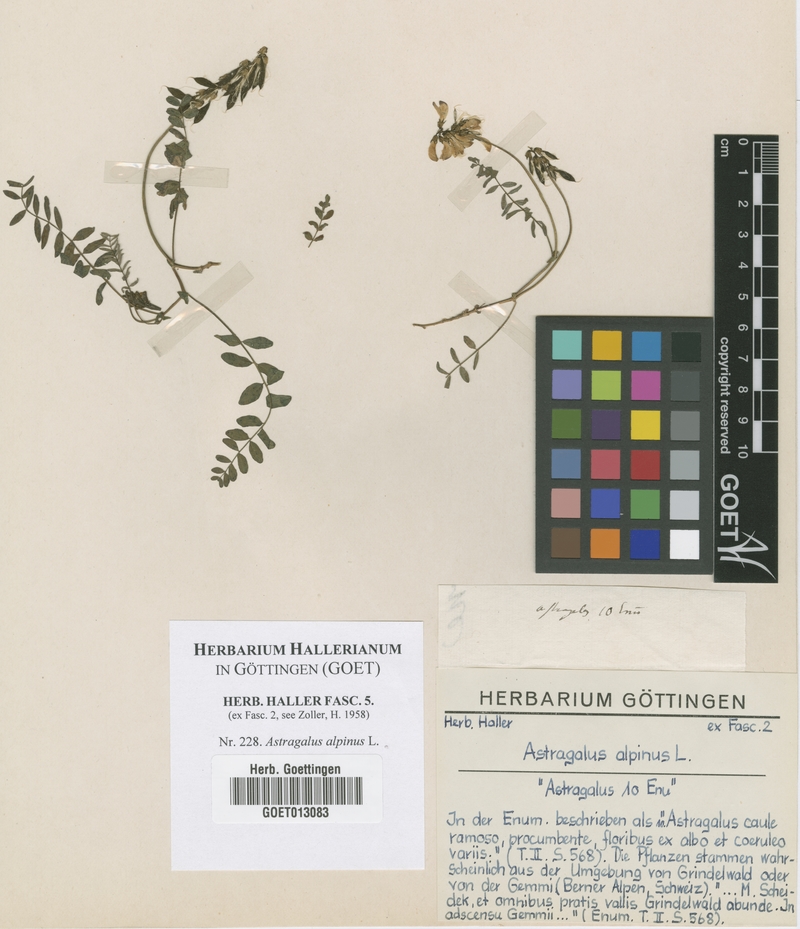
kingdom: Plantae
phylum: Tracheophyta
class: Magnoliopsida
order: Fabales
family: Fabaceae
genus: Astragalus
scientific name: Astragalus alpinus
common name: Alpine milk-vetch
